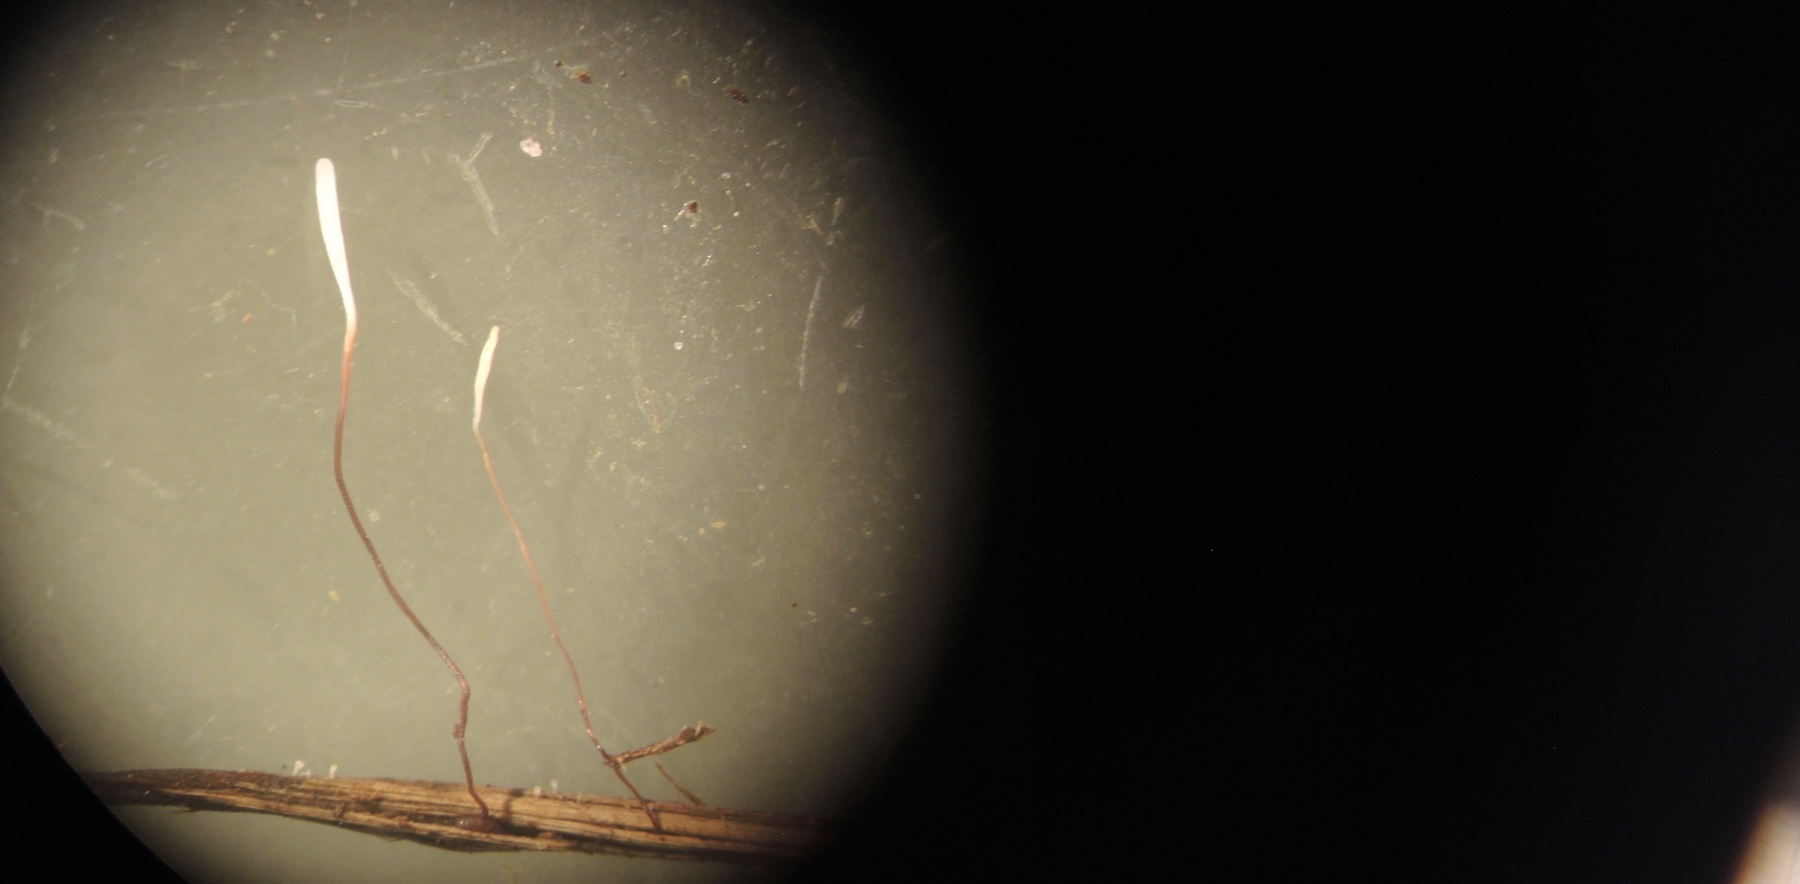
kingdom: Fungi
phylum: Basidiomycota
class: Agaricomycetes
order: Agaricales
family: Typhulaceae
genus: Typhula
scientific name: Typhula erythropus
